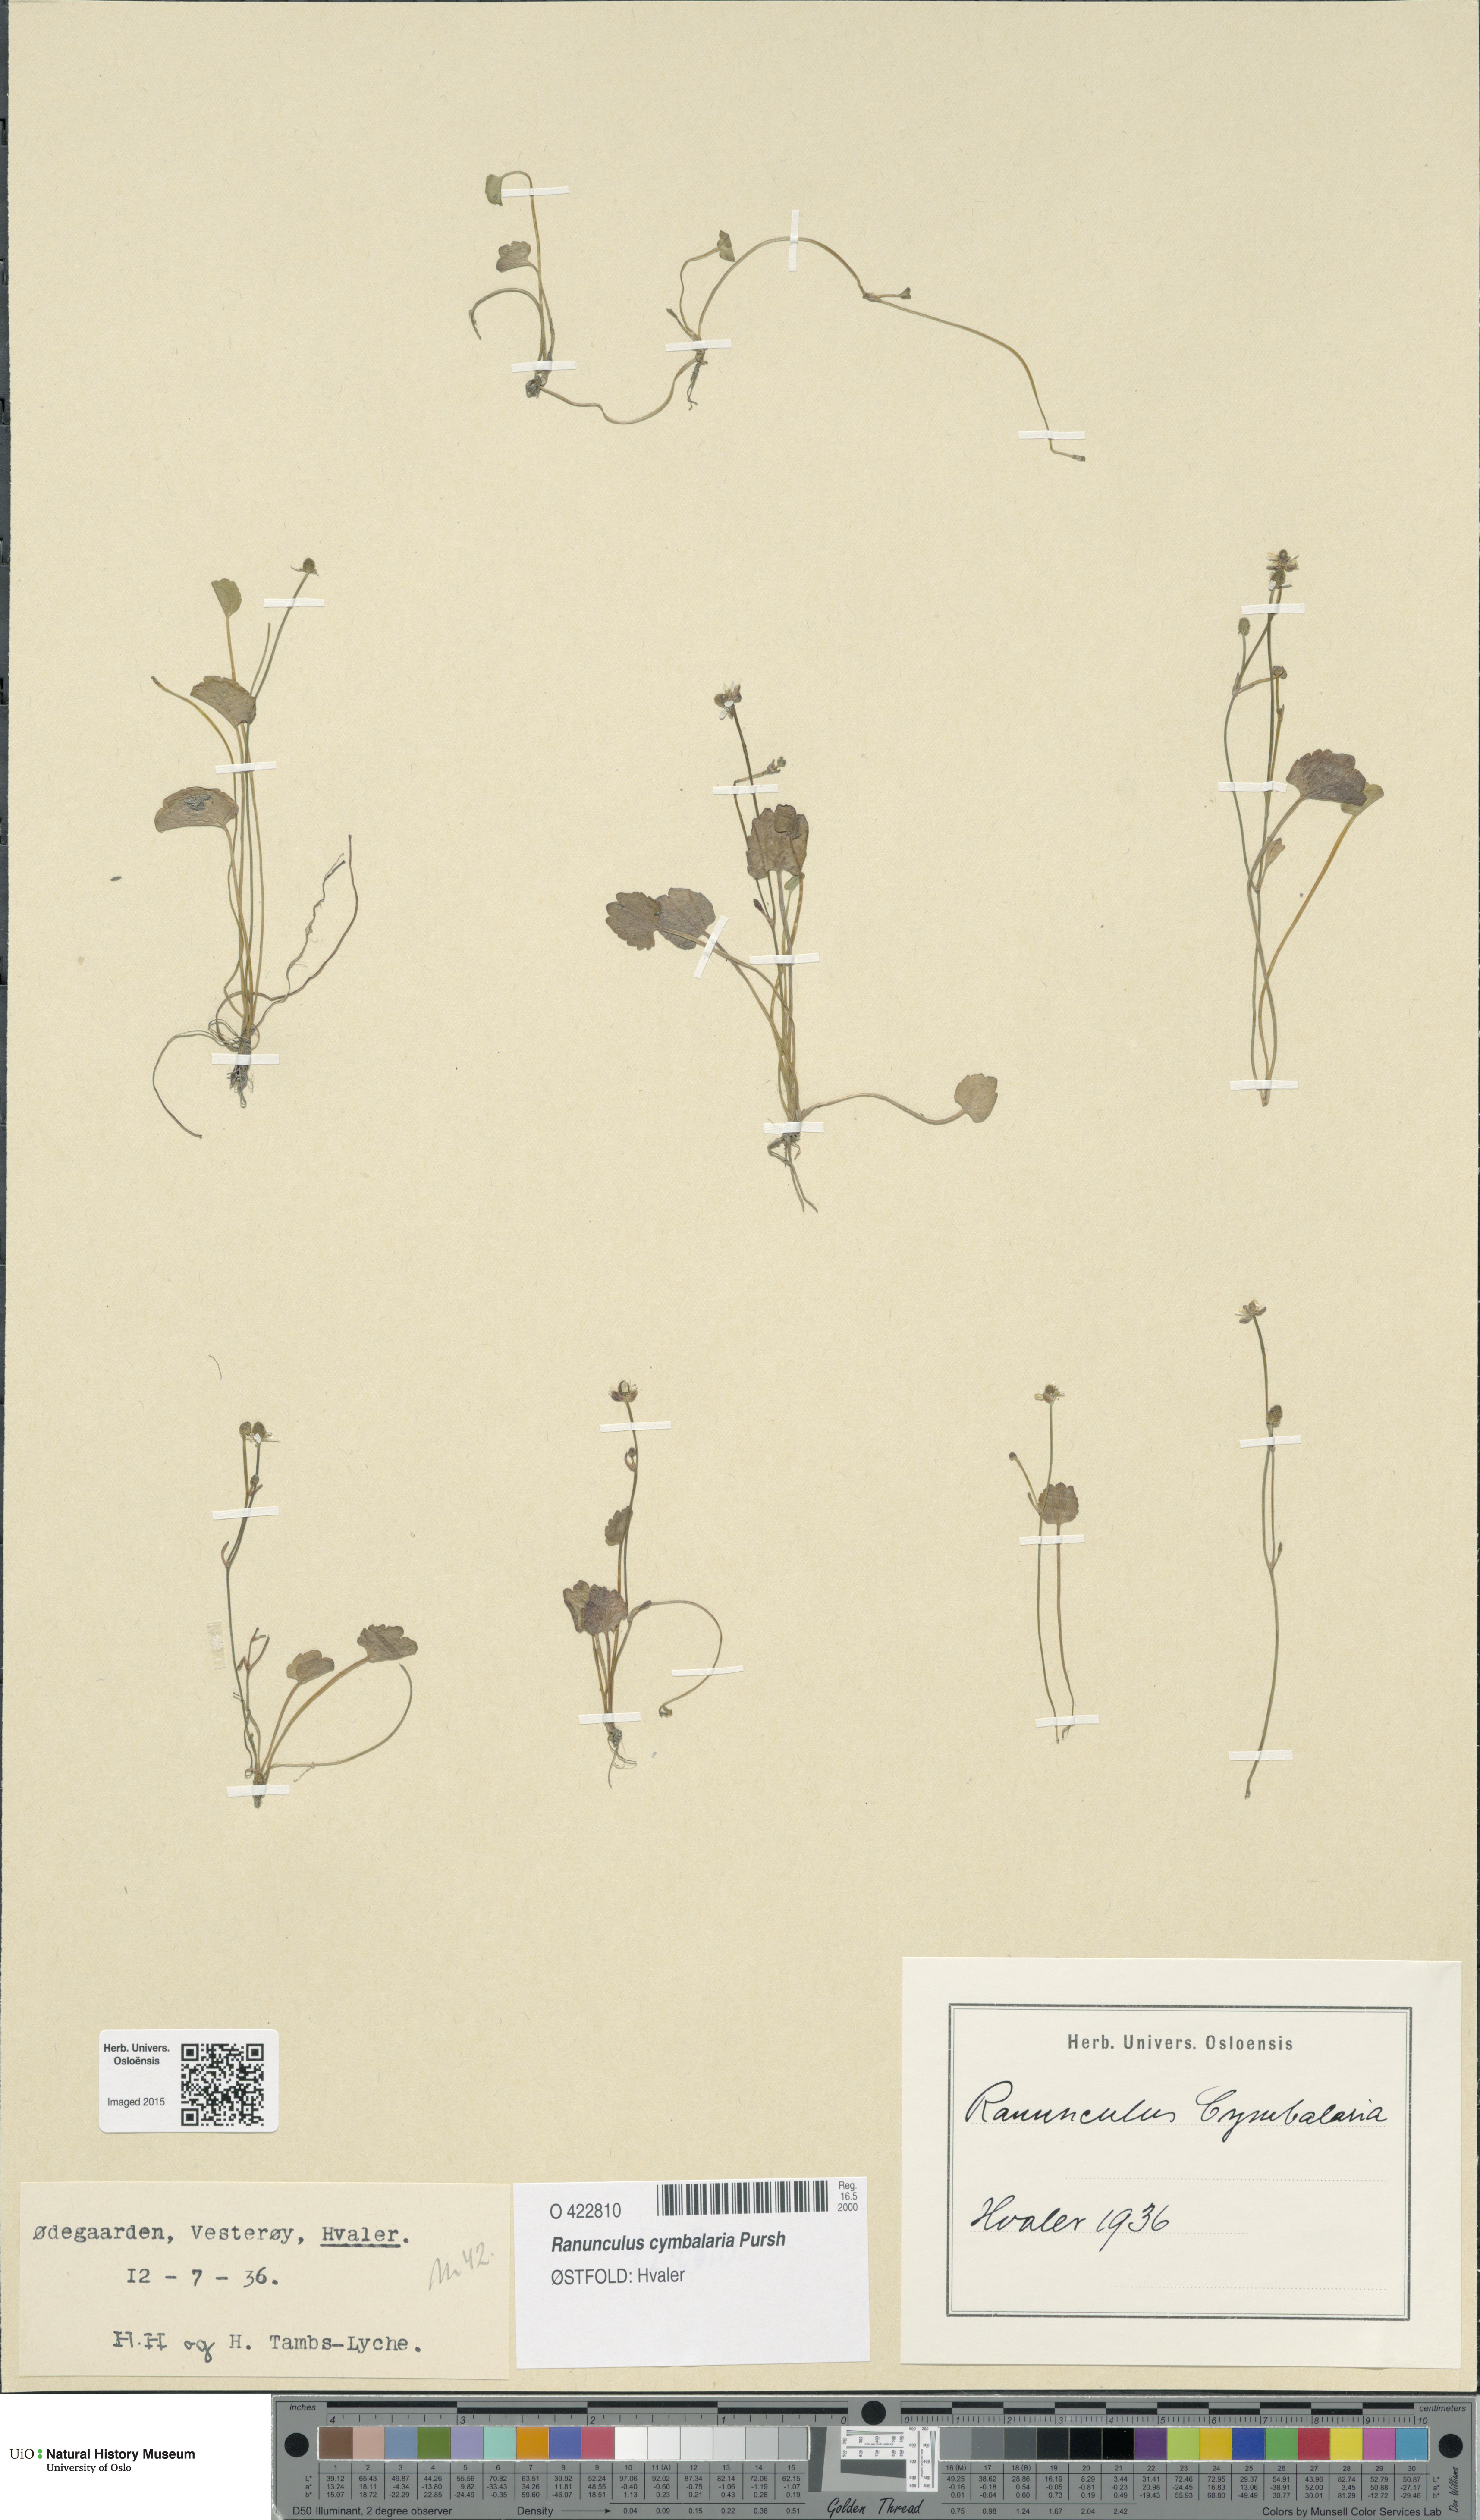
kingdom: Plantae
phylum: Tracheophyta
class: Magnoliopsida
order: Ranunculales
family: Ranunculaceae
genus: Halerpestes
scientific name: Halerpestes cymbalaria
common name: Seaside crowfoot
